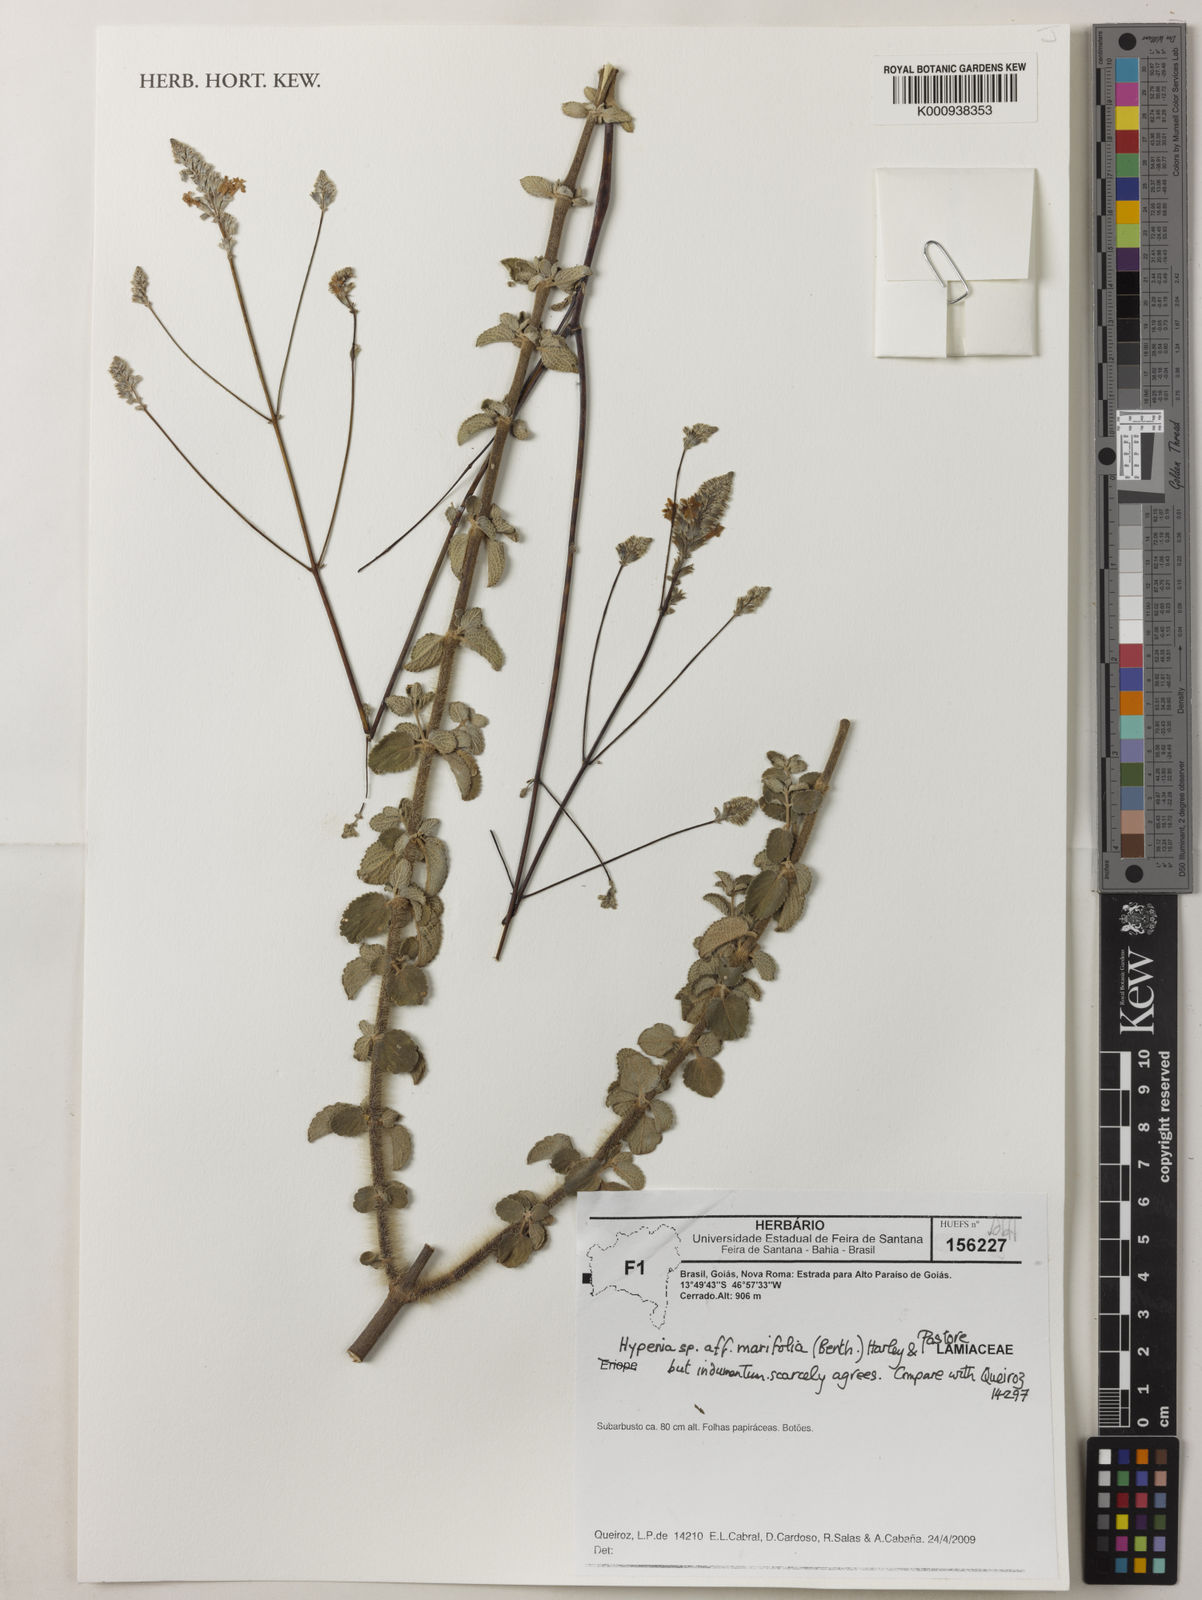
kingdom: Plantae
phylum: Tracheophyta
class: Magnoliopsida
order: Lamiales
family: Lamiaceae
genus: Hypenia
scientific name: Hypenia
